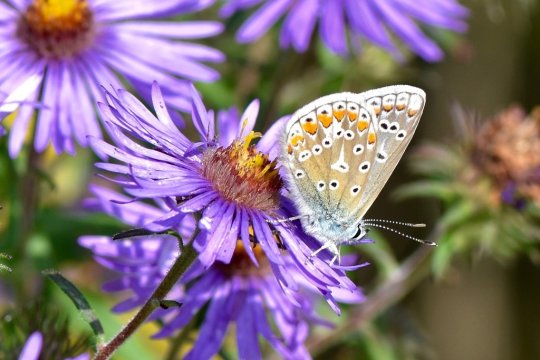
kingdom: Animalia
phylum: Arthropoda
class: Insecta
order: Lepidoptera
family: Lycaenidae
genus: Polyommatus
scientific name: Polyommatus icarus
